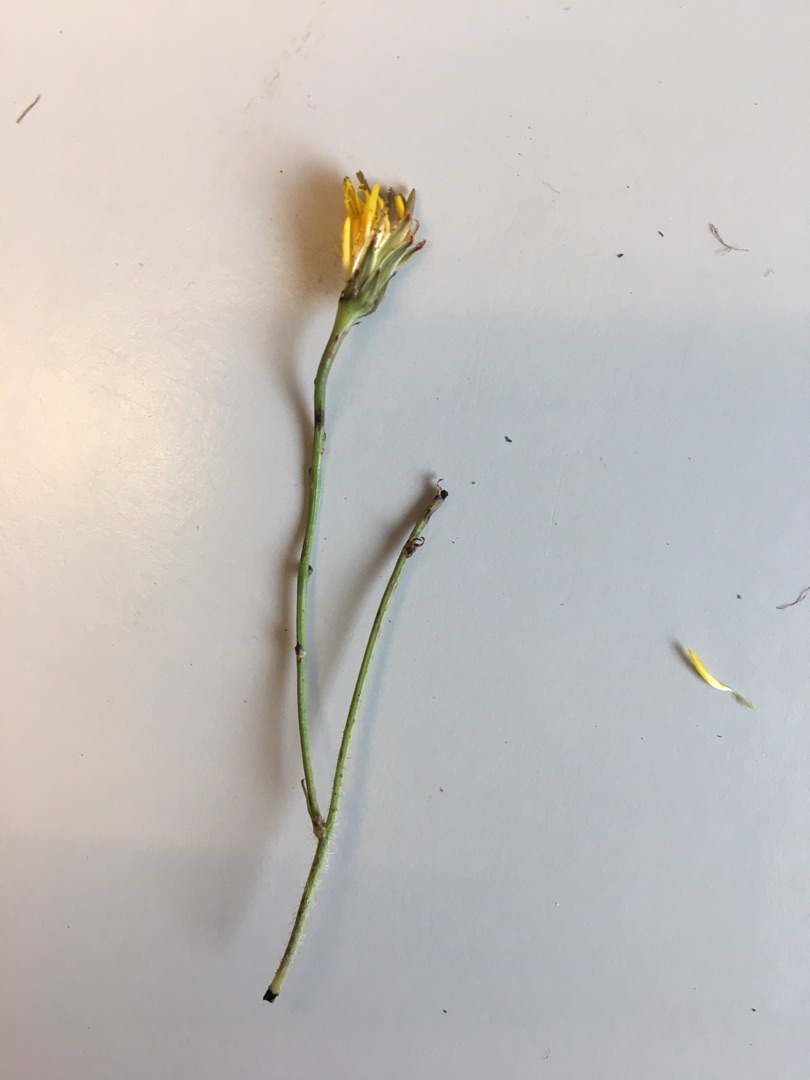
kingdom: Plantae
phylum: Tracheophyta
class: Magnoliopsida
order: Asterales
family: Asteraceae
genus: Hypochaeris
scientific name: Hypochaeris radicata
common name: Almindelig kongepen
